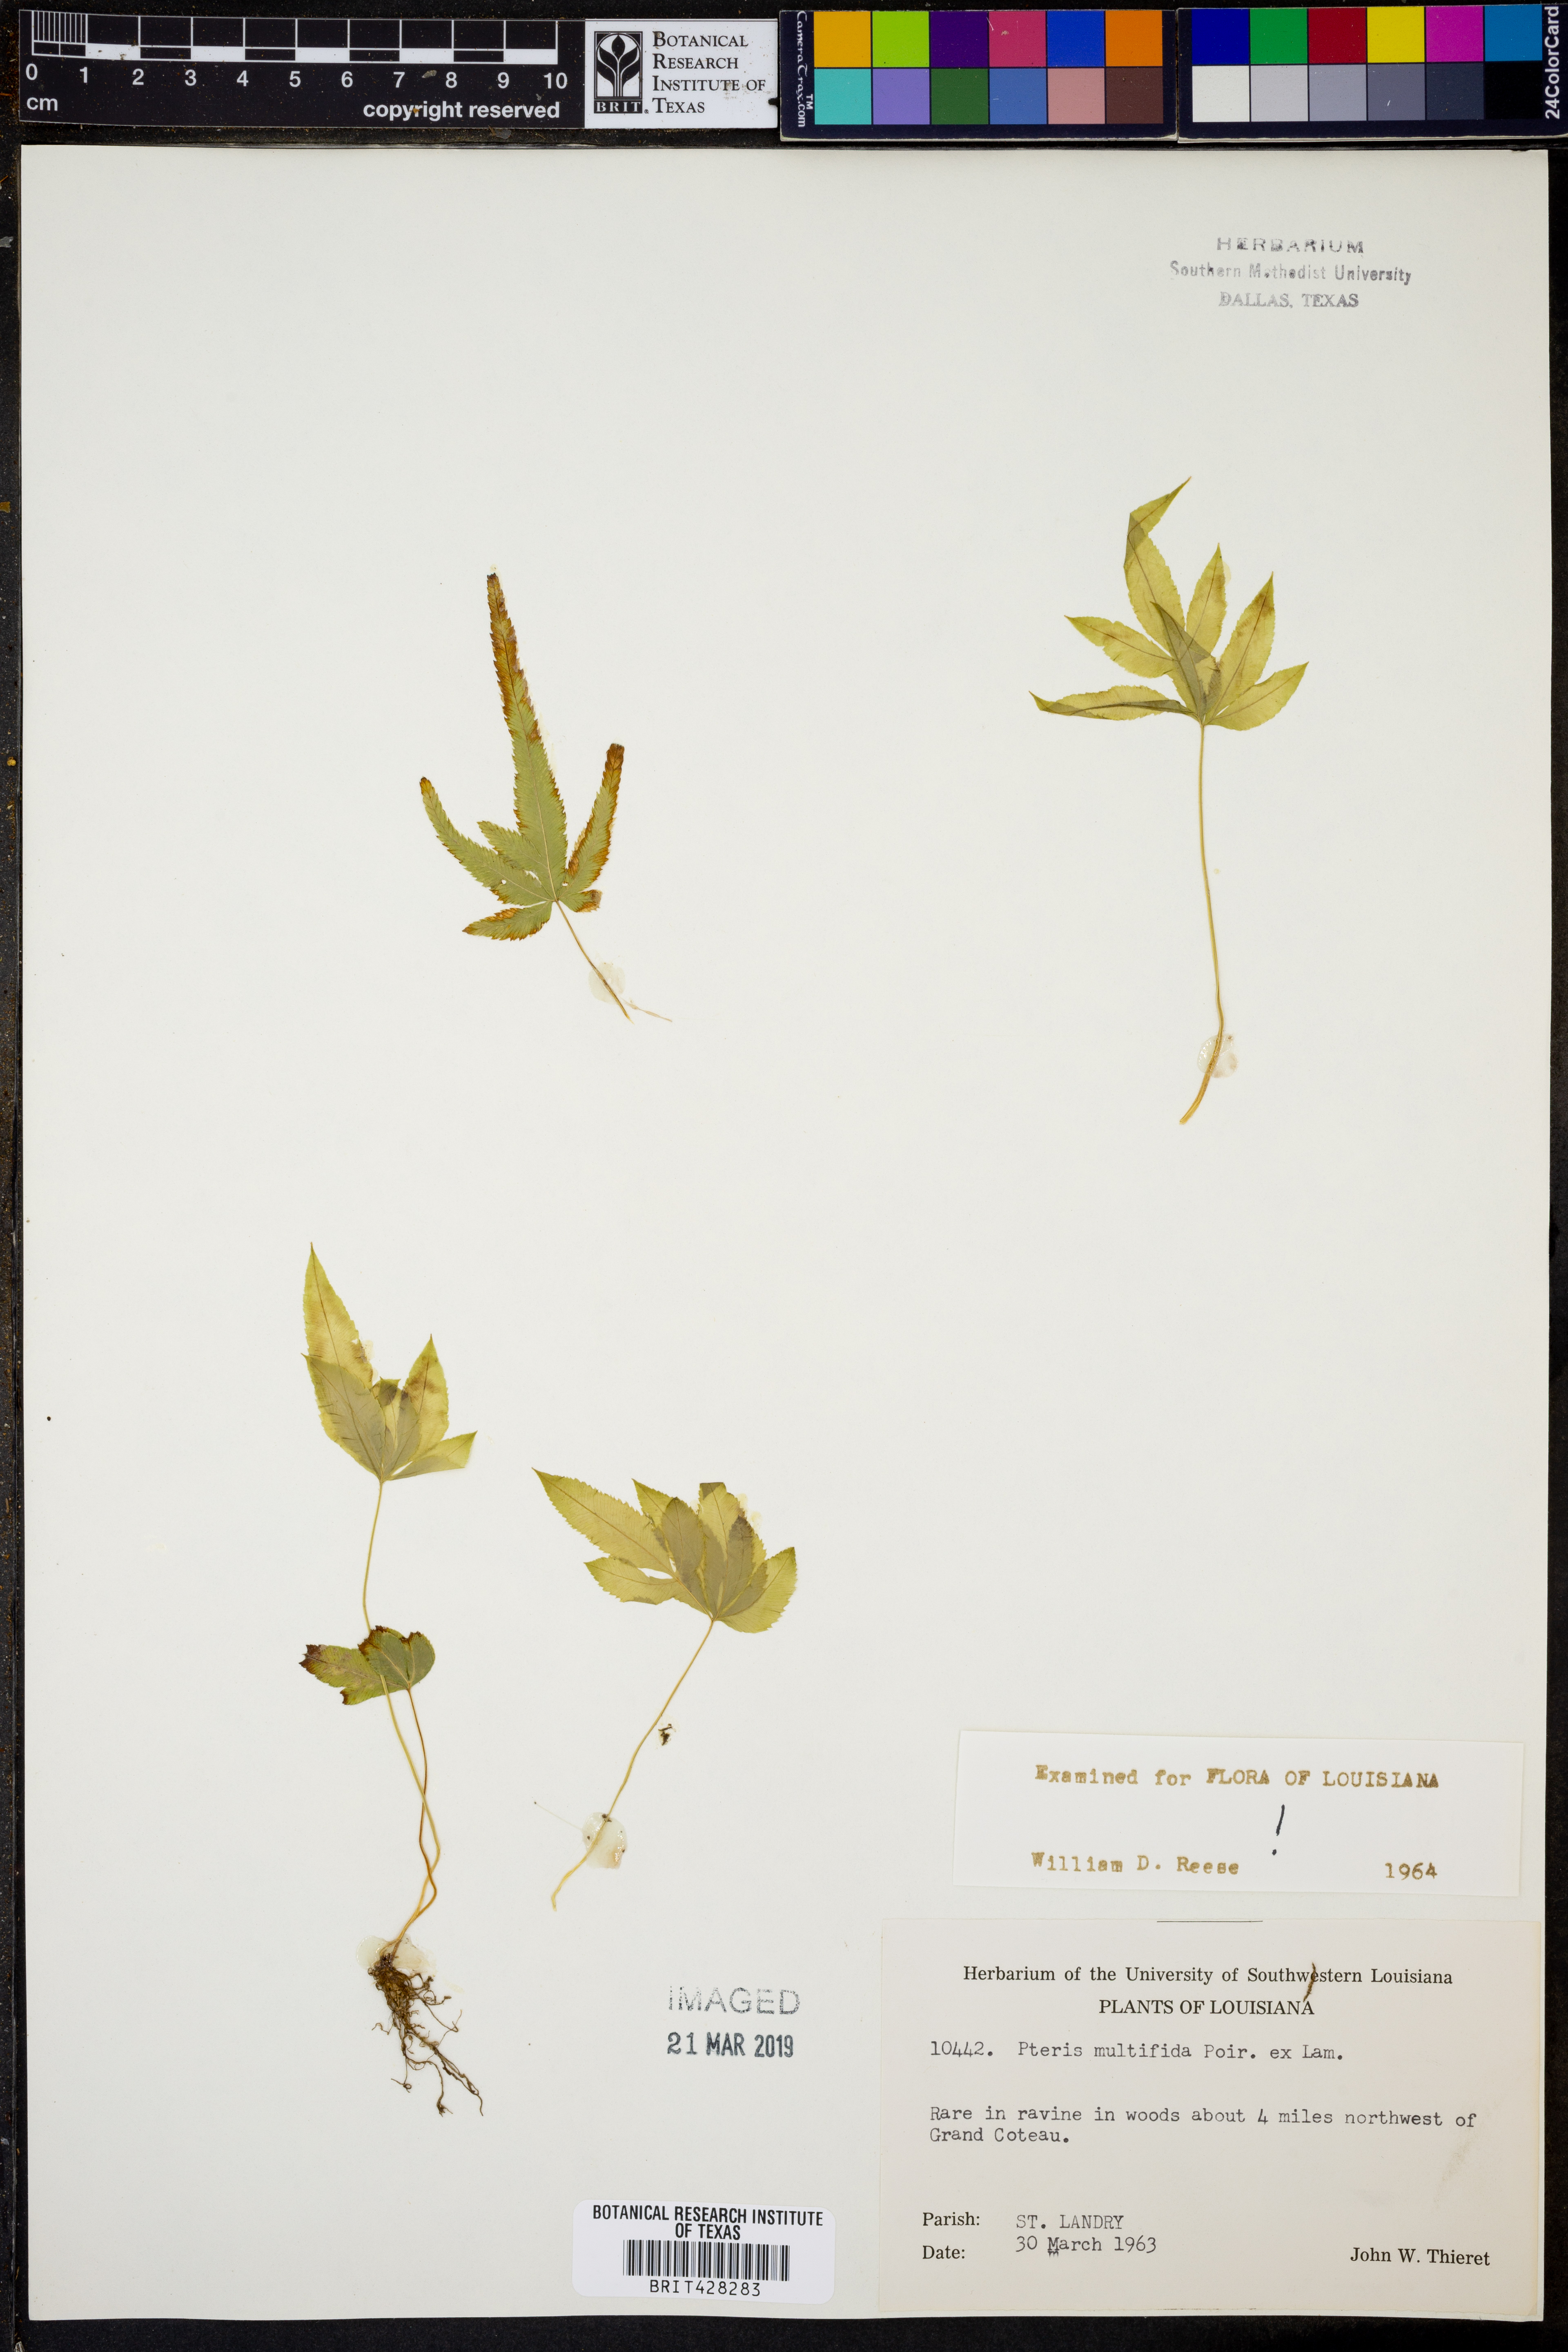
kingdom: Plantae
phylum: Tracheophyta
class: Polypodiopsida
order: Polypodiales
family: Pteridaceae
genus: Pteris
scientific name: Pteris multifida
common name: Spider brake
